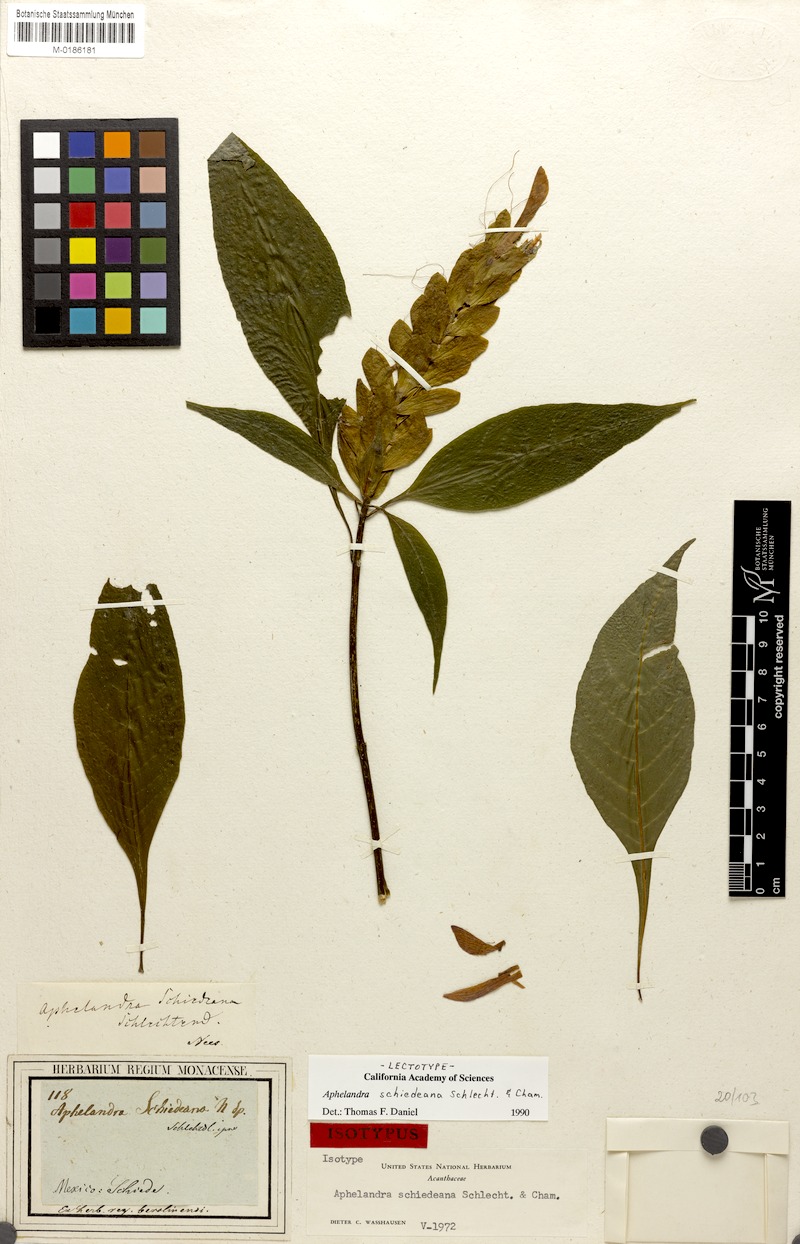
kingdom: Plantae
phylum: Tracheophyta
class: Magnoliopsida
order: Lamiales
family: Acanthaceae
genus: Aphelandra
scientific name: Aphelandra schiedeana
